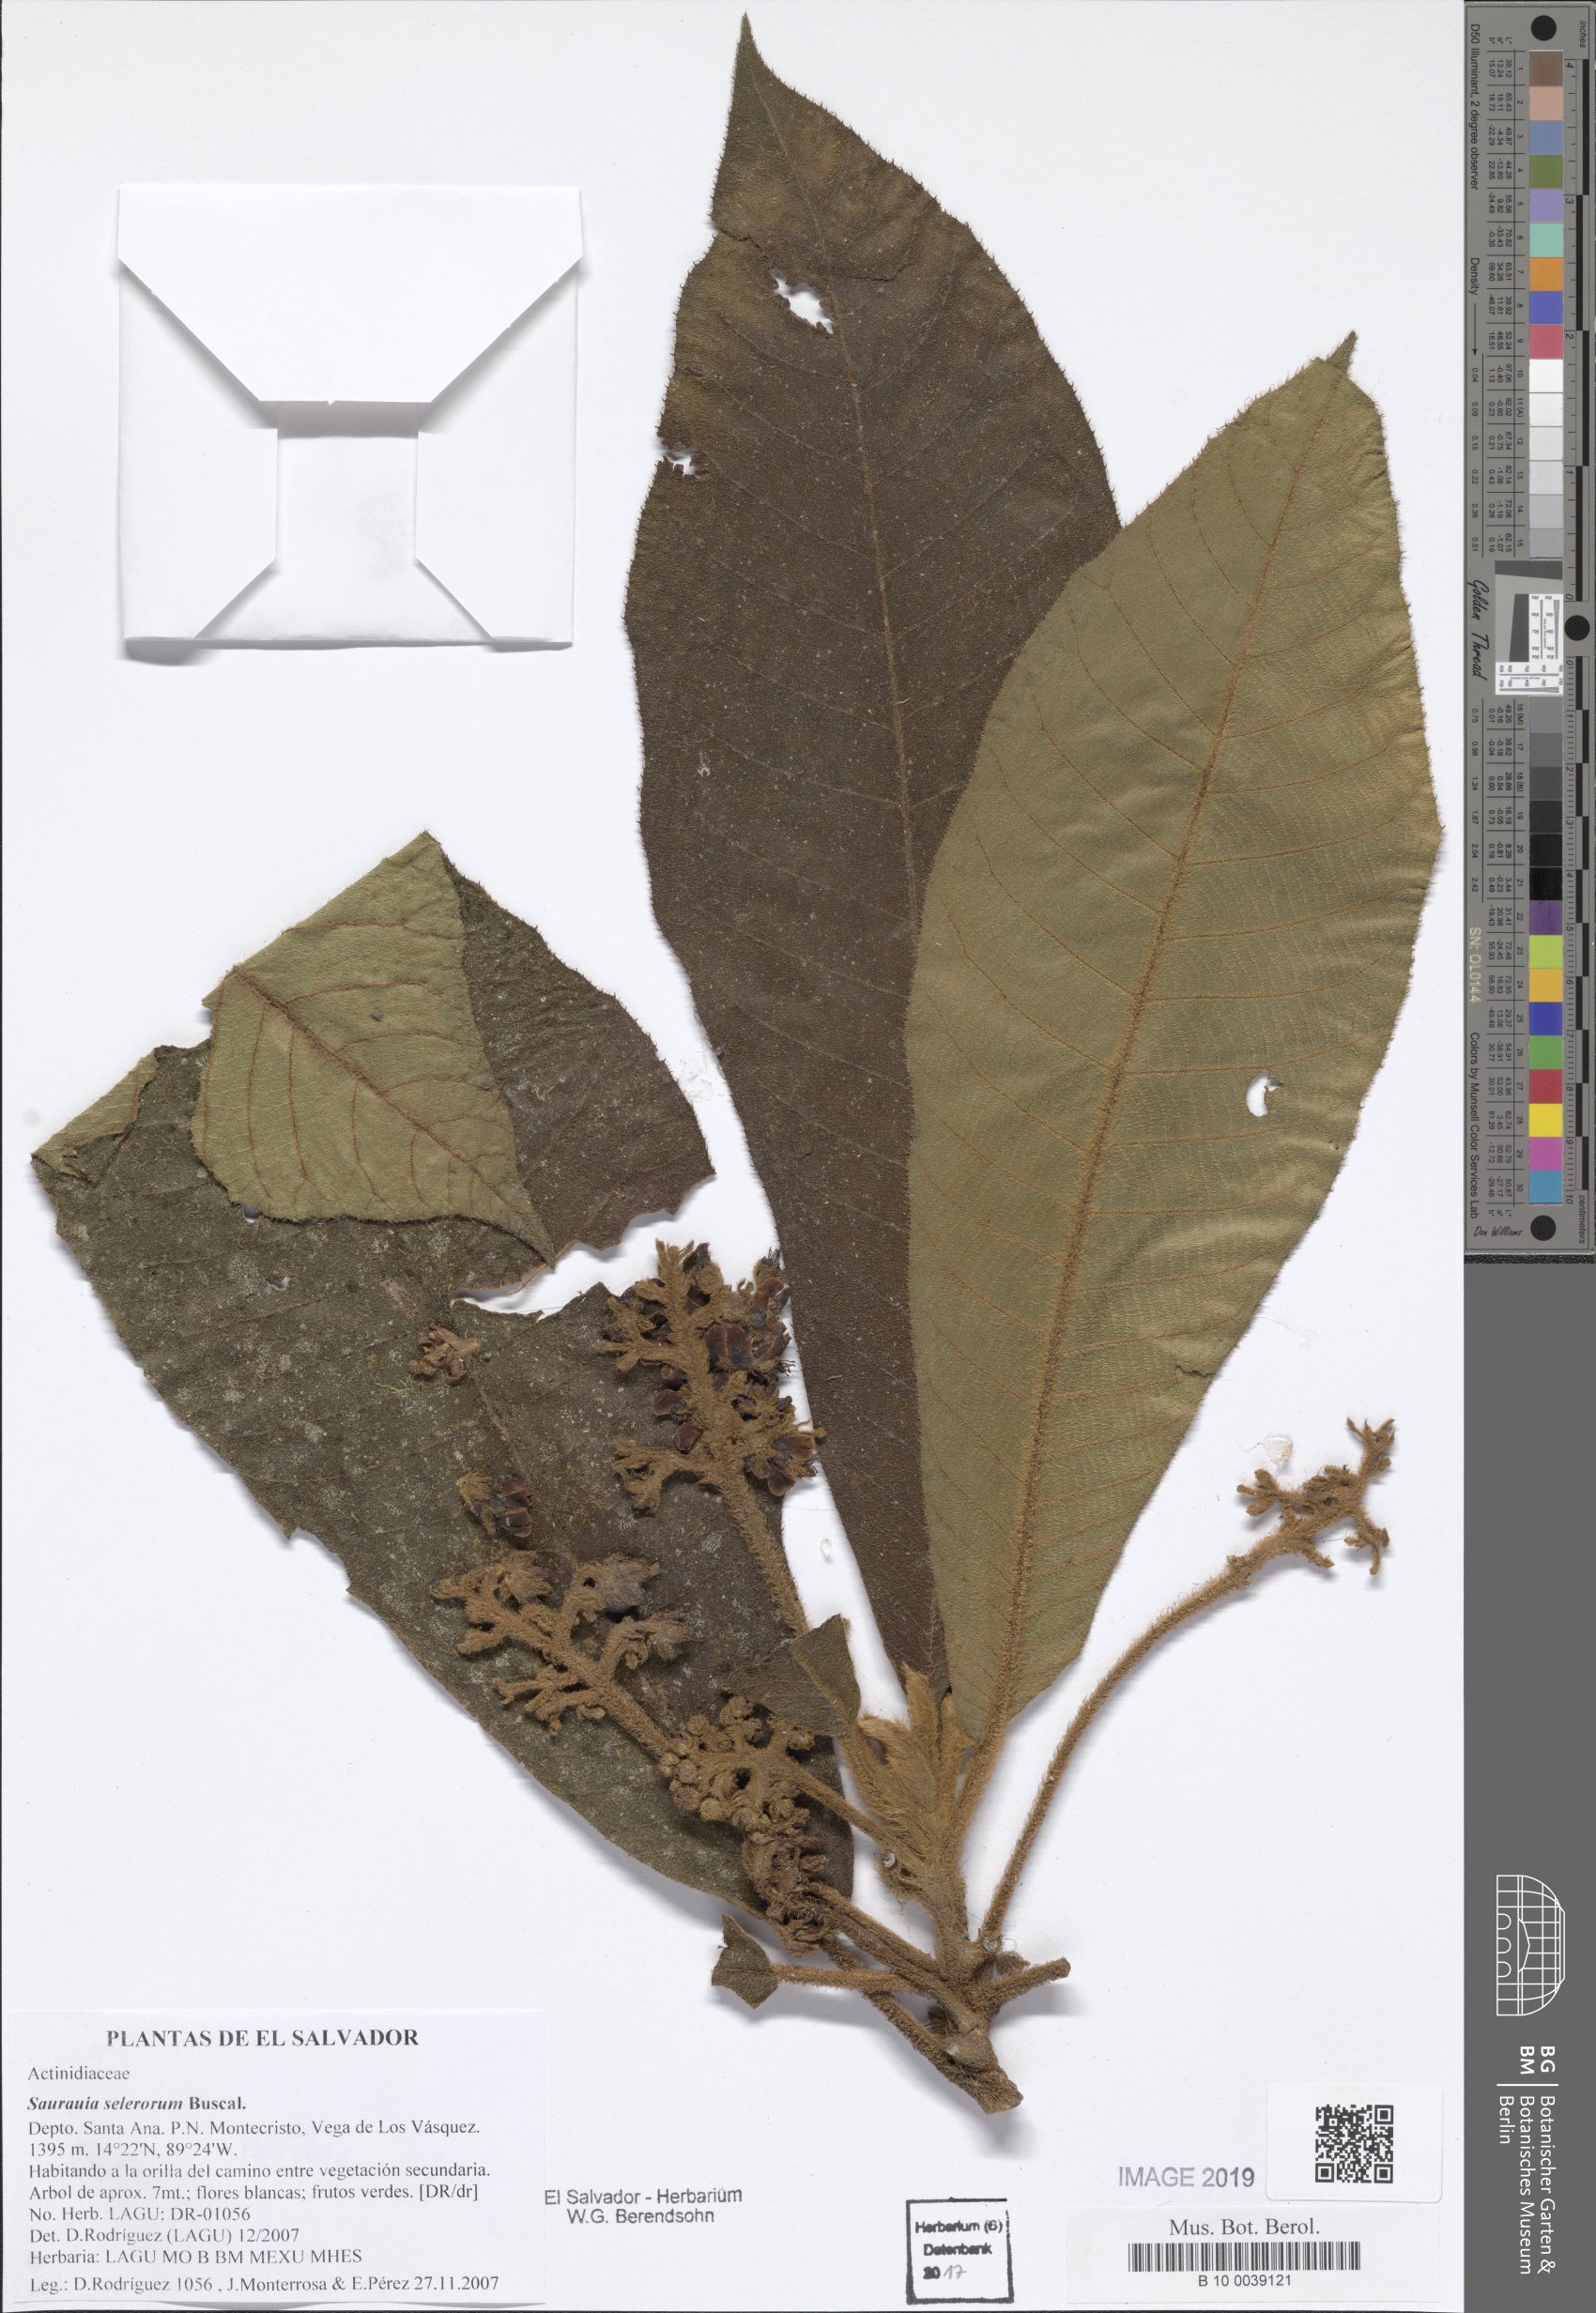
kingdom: Plantae
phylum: Tracheophyta
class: Magnoliopsida
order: Ericales
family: Actinidiaceae
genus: Saurauia
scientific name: Saurauia selerorum
